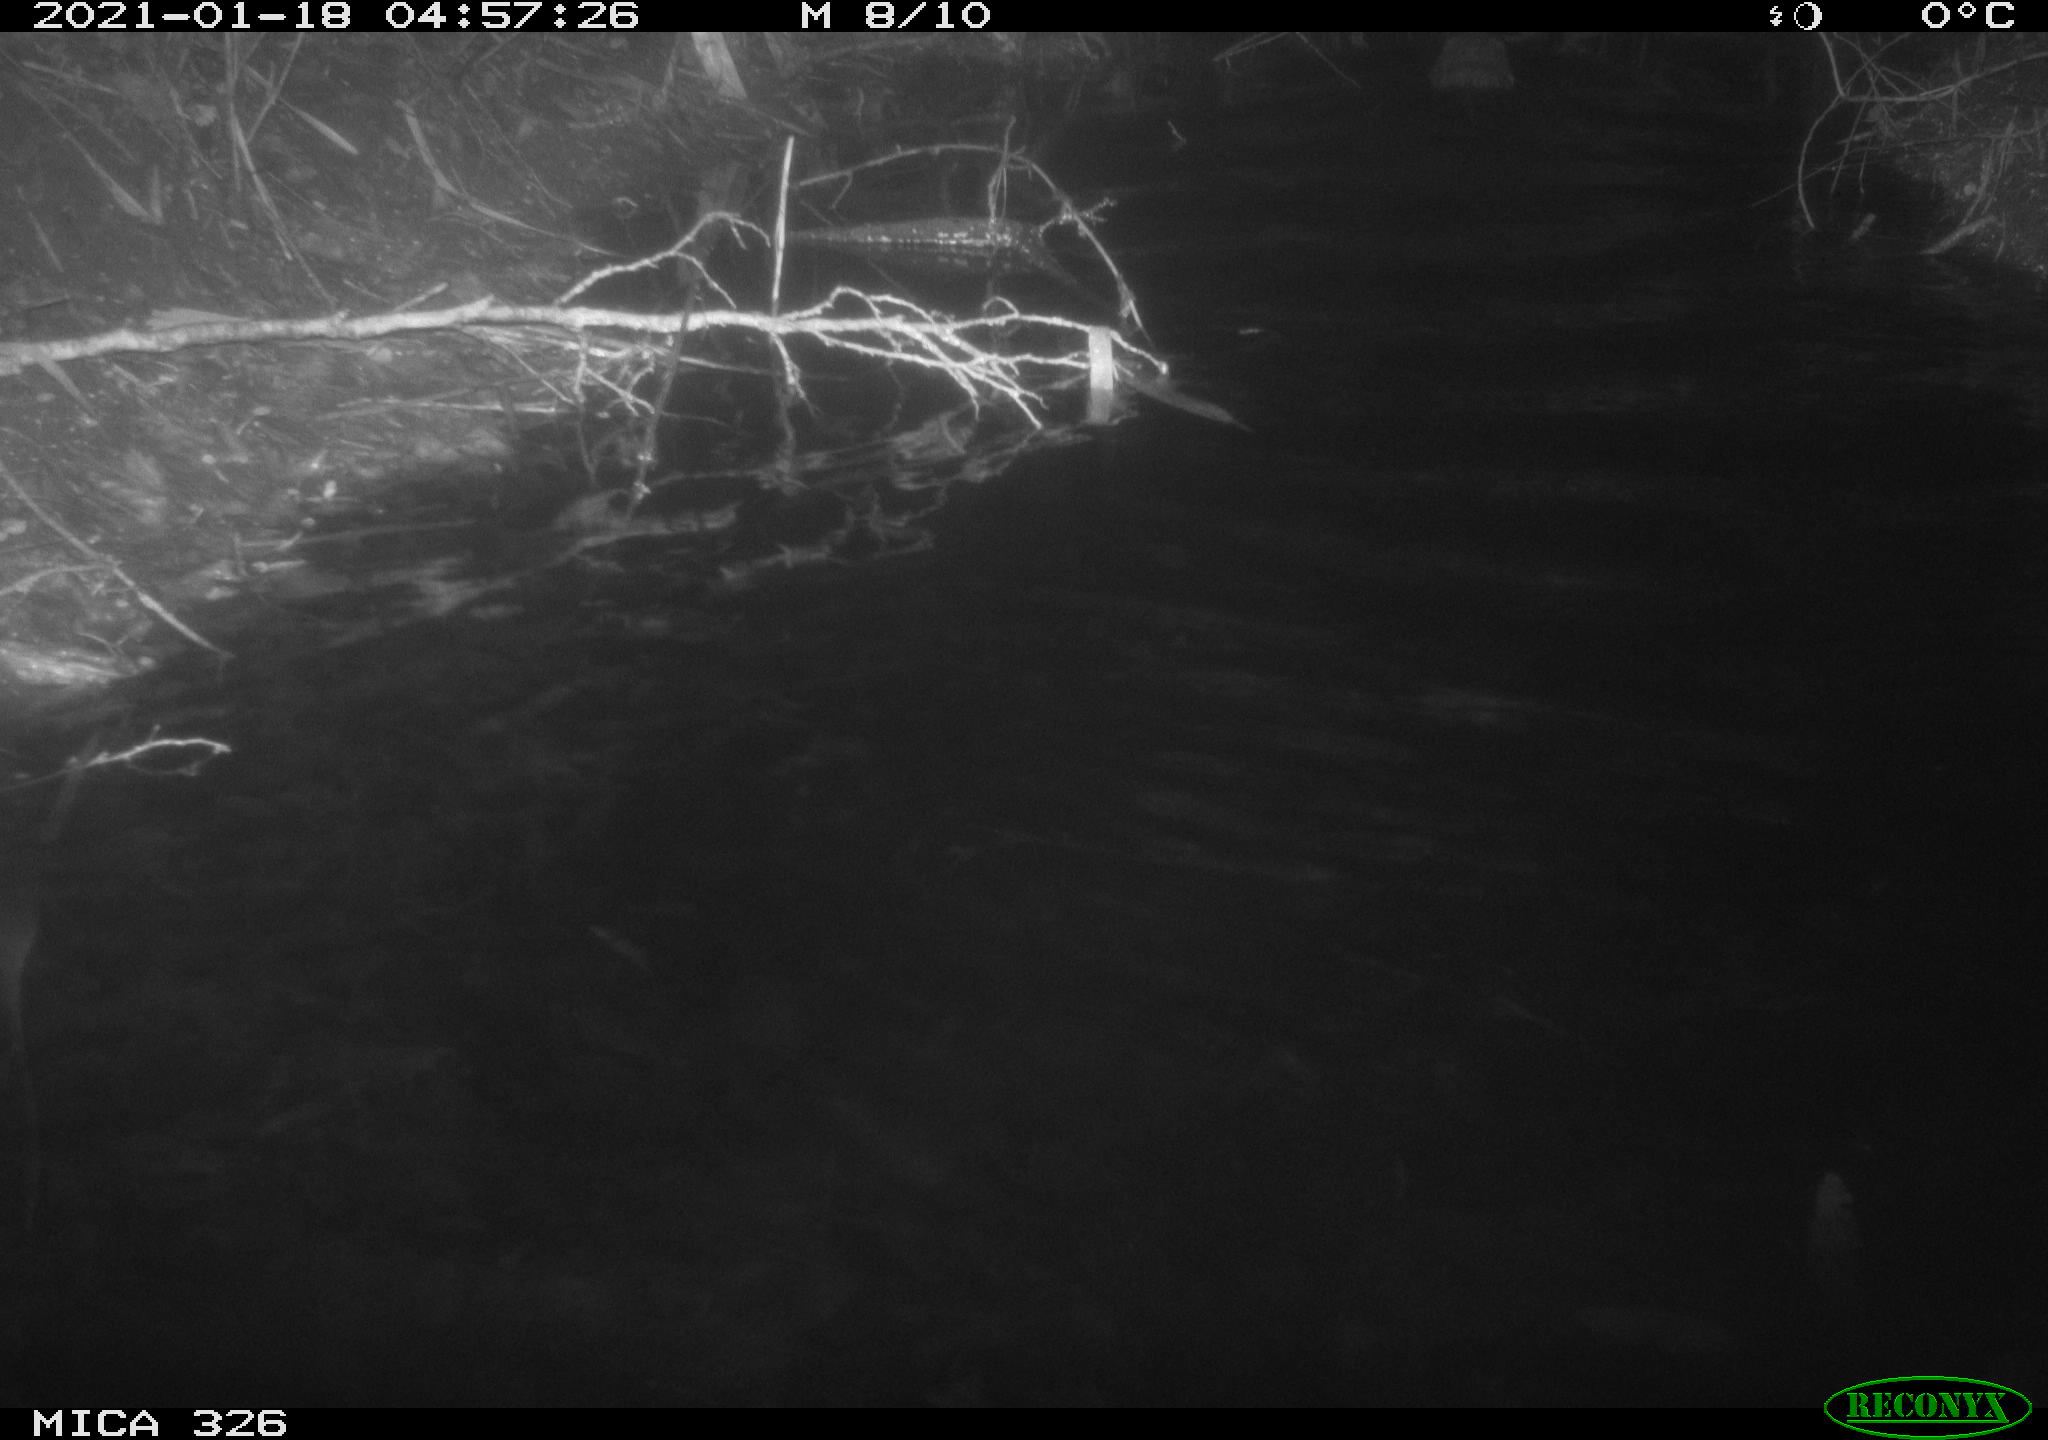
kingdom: Animalia
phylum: Chordata
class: Mammalia
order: Rodentia
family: Cricetidae
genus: Ondatra
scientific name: Ondatra zibethicus
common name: Muskrat
